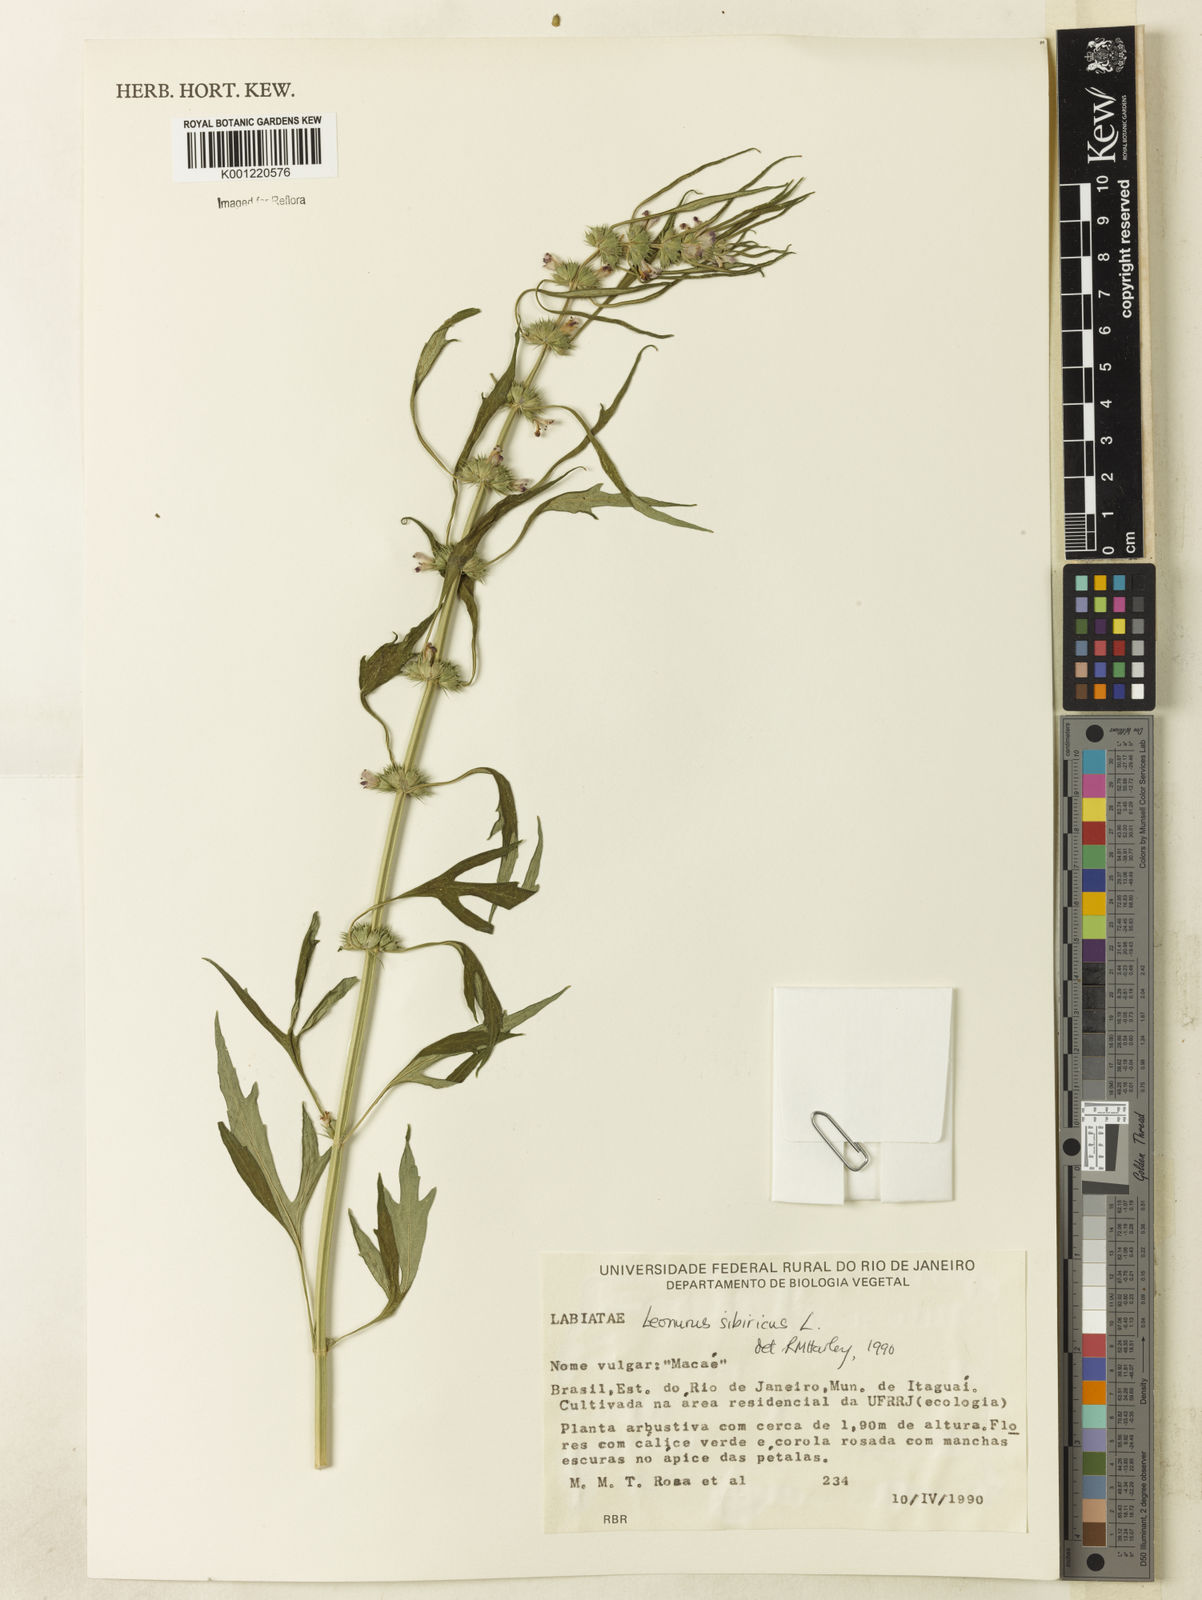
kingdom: Plantae
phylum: Tracheophyta
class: Magnoliopsida
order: Lamiales
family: Lamiaceae
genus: Leonurus
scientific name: Leonurus japonicus
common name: Honeyweed
